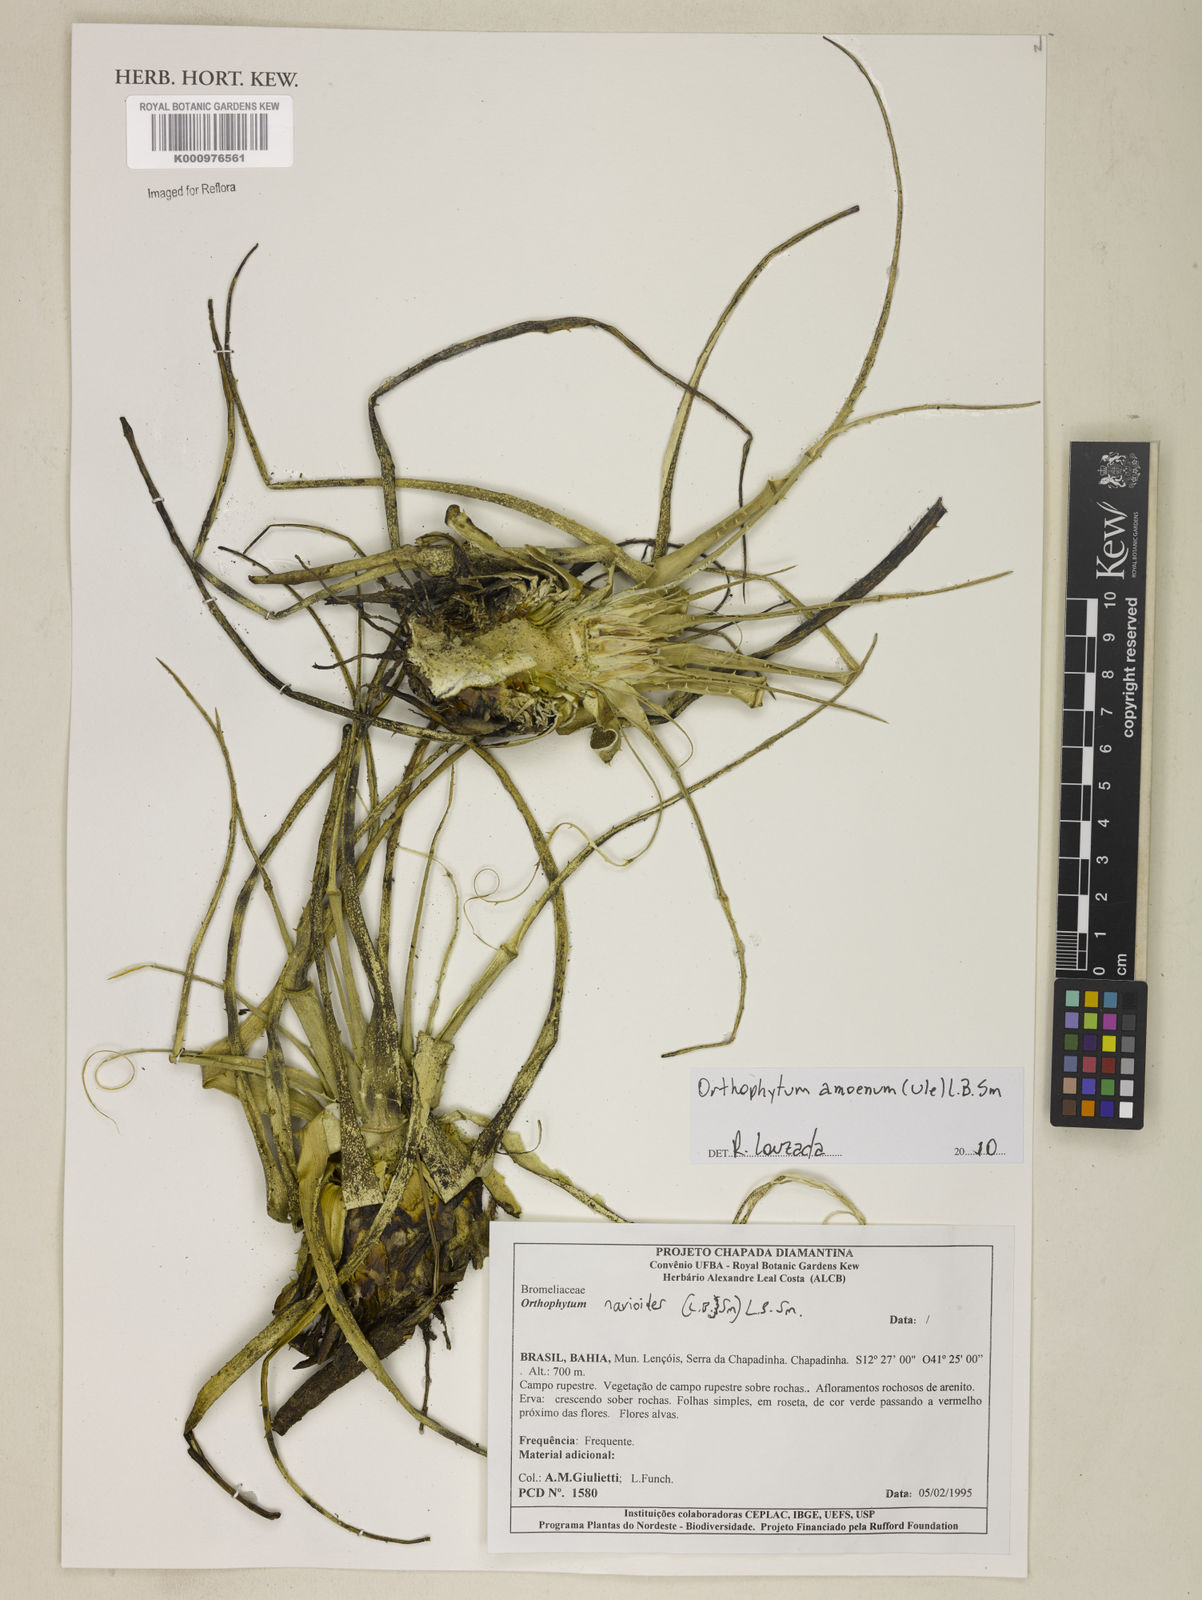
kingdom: Plantae
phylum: Tracheophyta
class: Liliopsida
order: Poales
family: Bromeliaceae
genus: Sincoraea
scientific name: Sincoraea amoena
